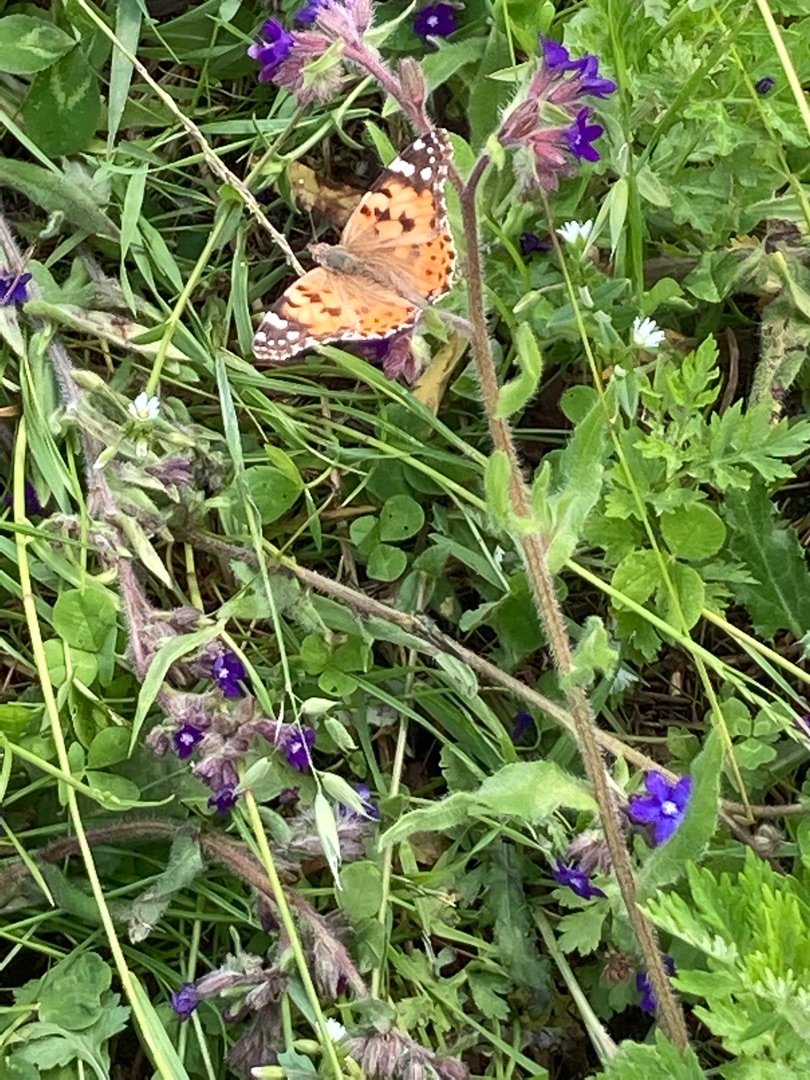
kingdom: Animalia
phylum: Arthropoda
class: Insecta
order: Lepidoptera
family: Nymphalidae
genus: Vanessa
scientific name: Vanessa cardui
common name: Tidselsommerfugl
